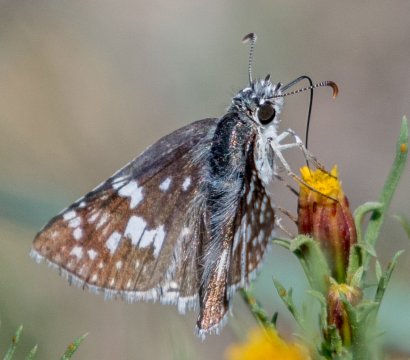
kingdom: Animalia
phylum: Arthropoda
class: Insecta
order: Lepidoptera
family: Hesperiidae
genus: Pyrgus
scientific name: Pyrgus communis
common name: Common Checkered-Skipper
